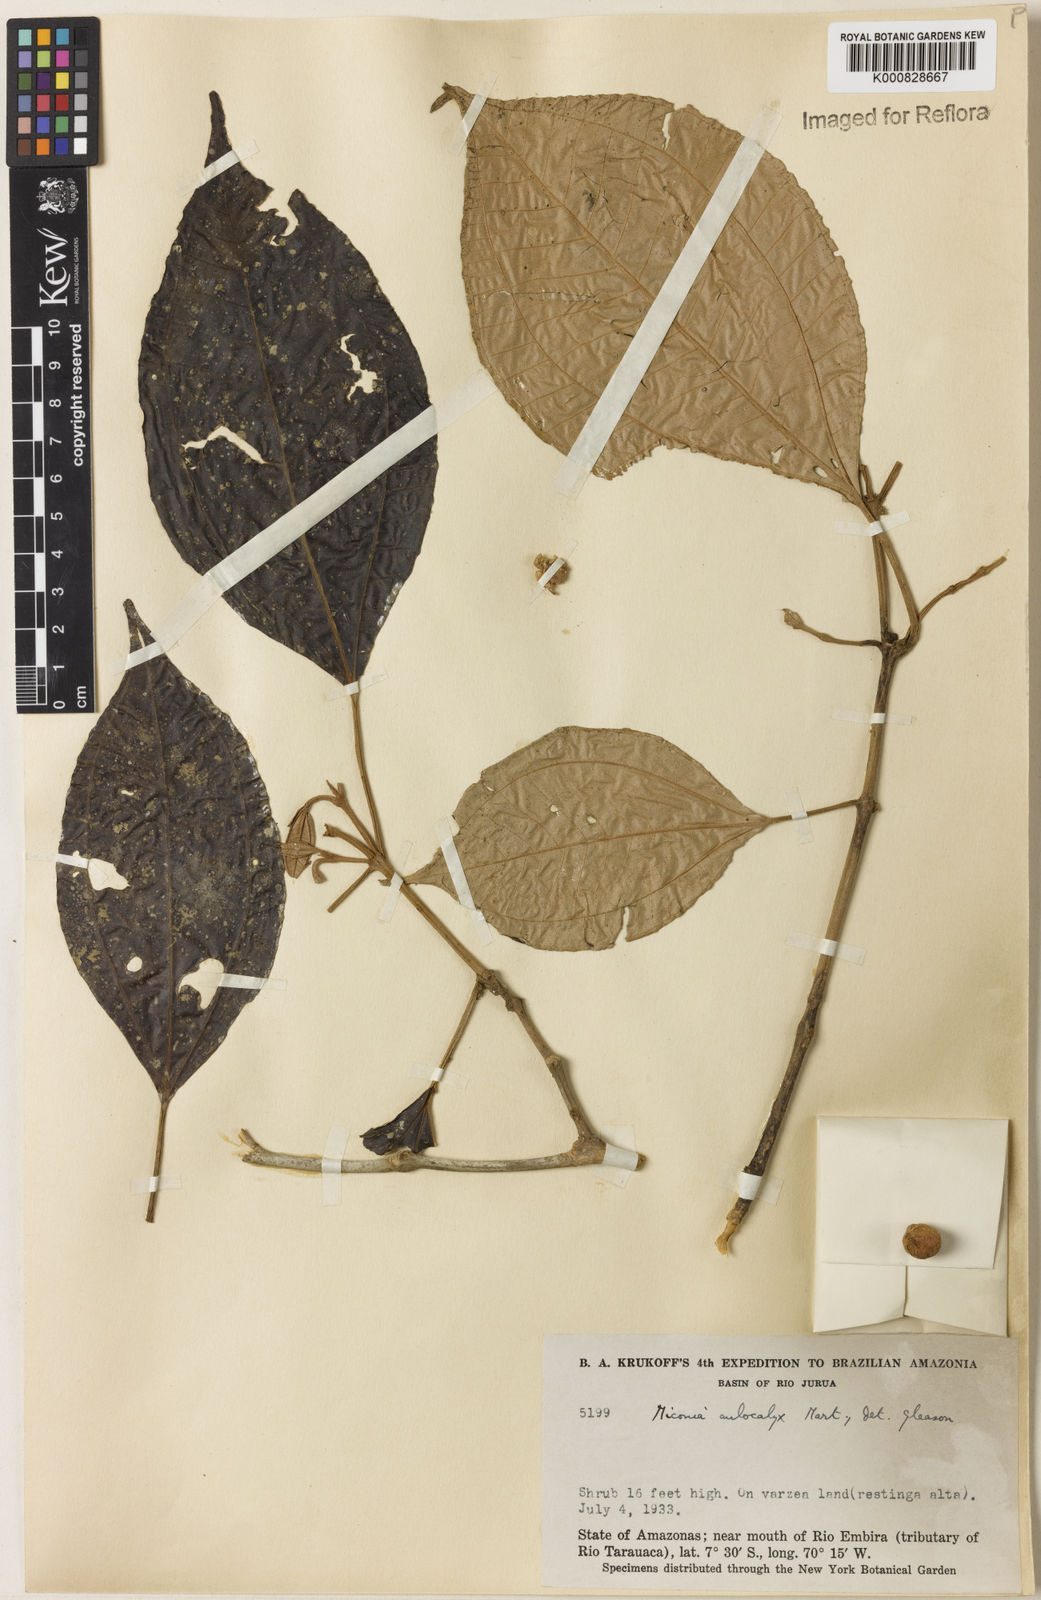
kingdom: Plantae
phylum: Tracheophyta
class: Magnoliopsida
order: Myrtales
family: Melastomataceae
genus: Miconia
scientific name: Miconia aulocalyx
